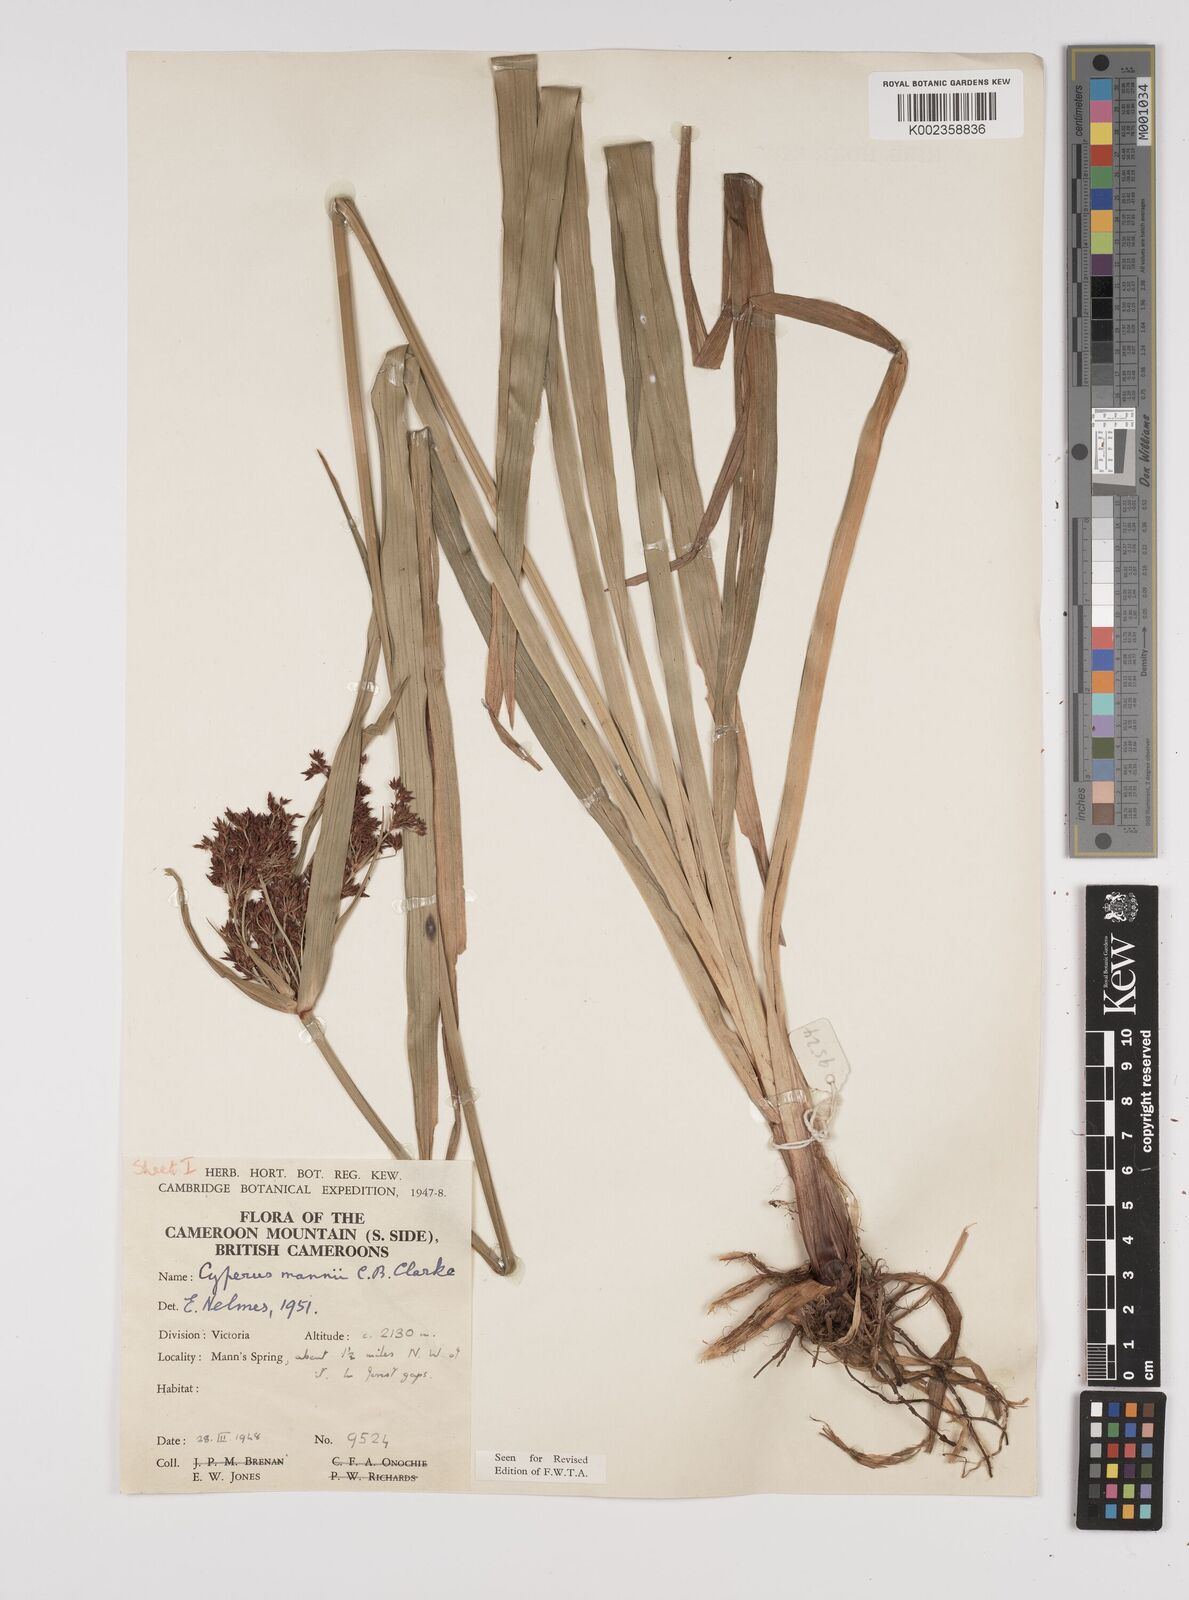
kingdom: Plantae
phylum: Tracheophyta
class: Liliopsida
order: Poales
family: Cyperaceae
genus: Cyperus
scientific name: Cyperus baronii
